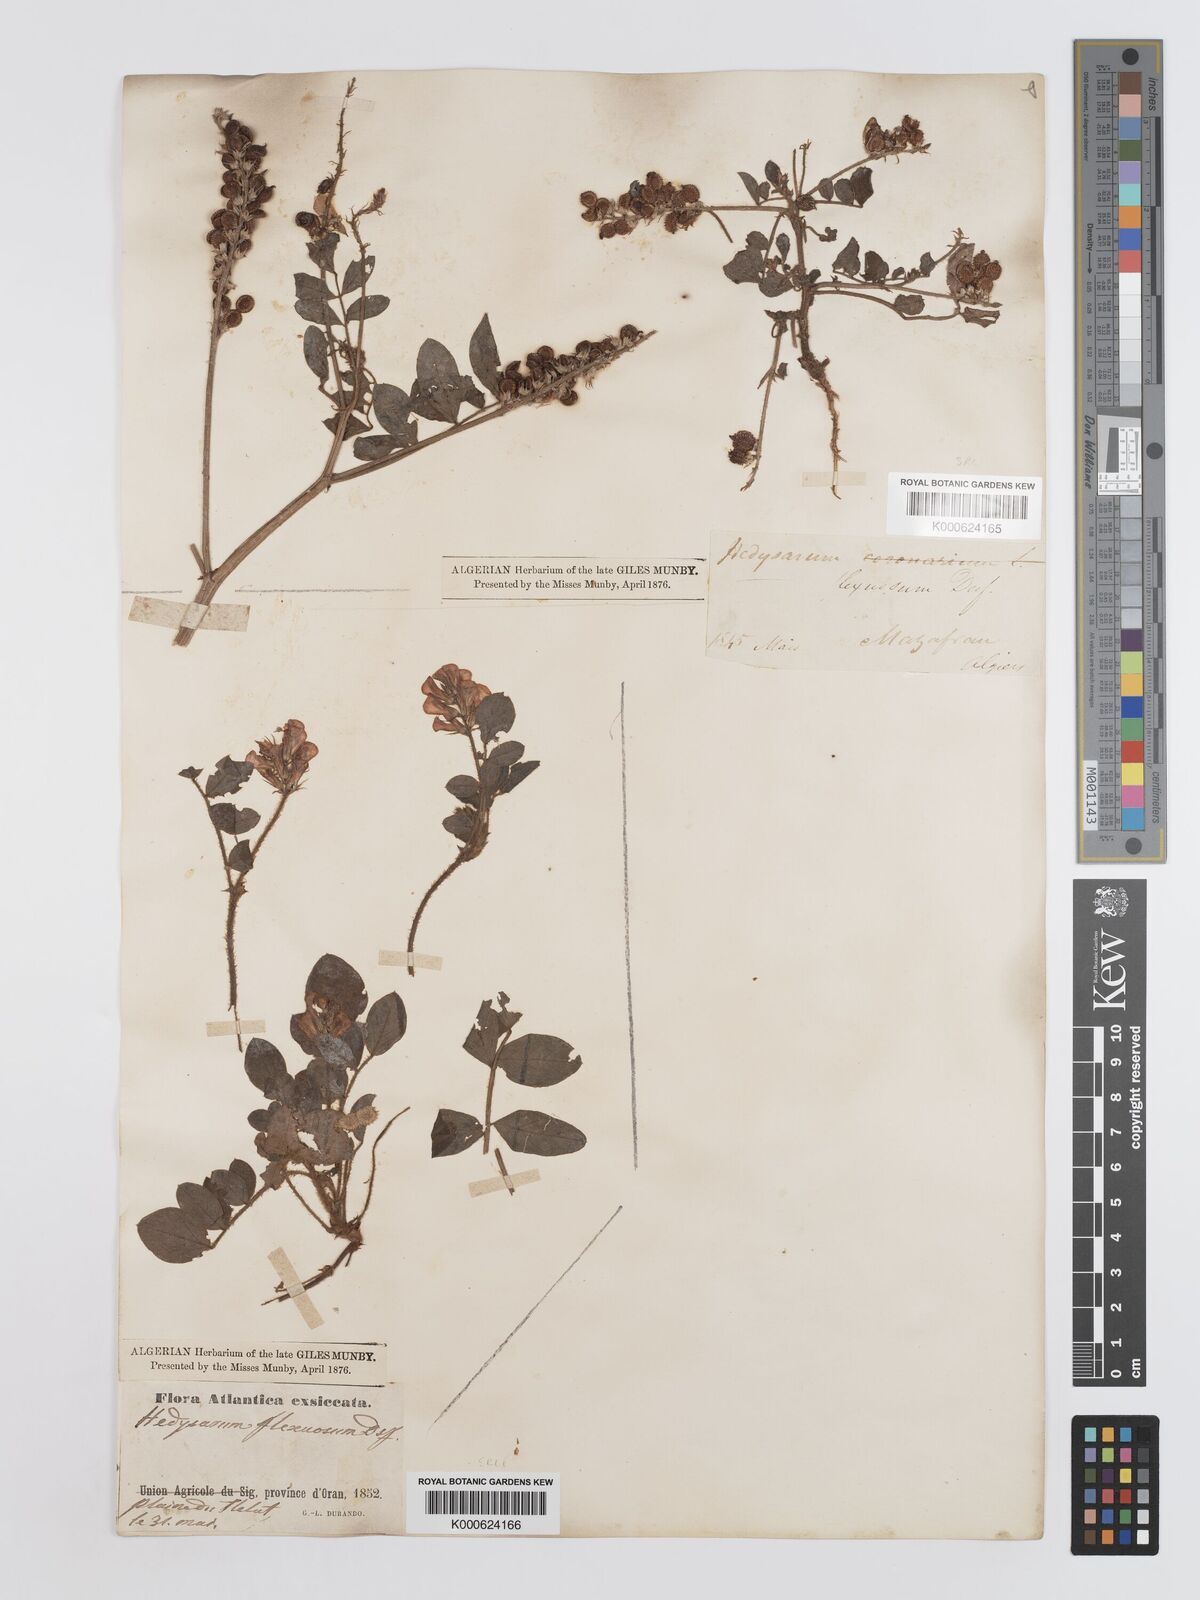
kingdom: Plantae
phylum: Tracheophyta
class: Magnoliopsida
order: Fabales
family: Fabaceae
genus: Sulla
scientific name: Sulla flexuosa
